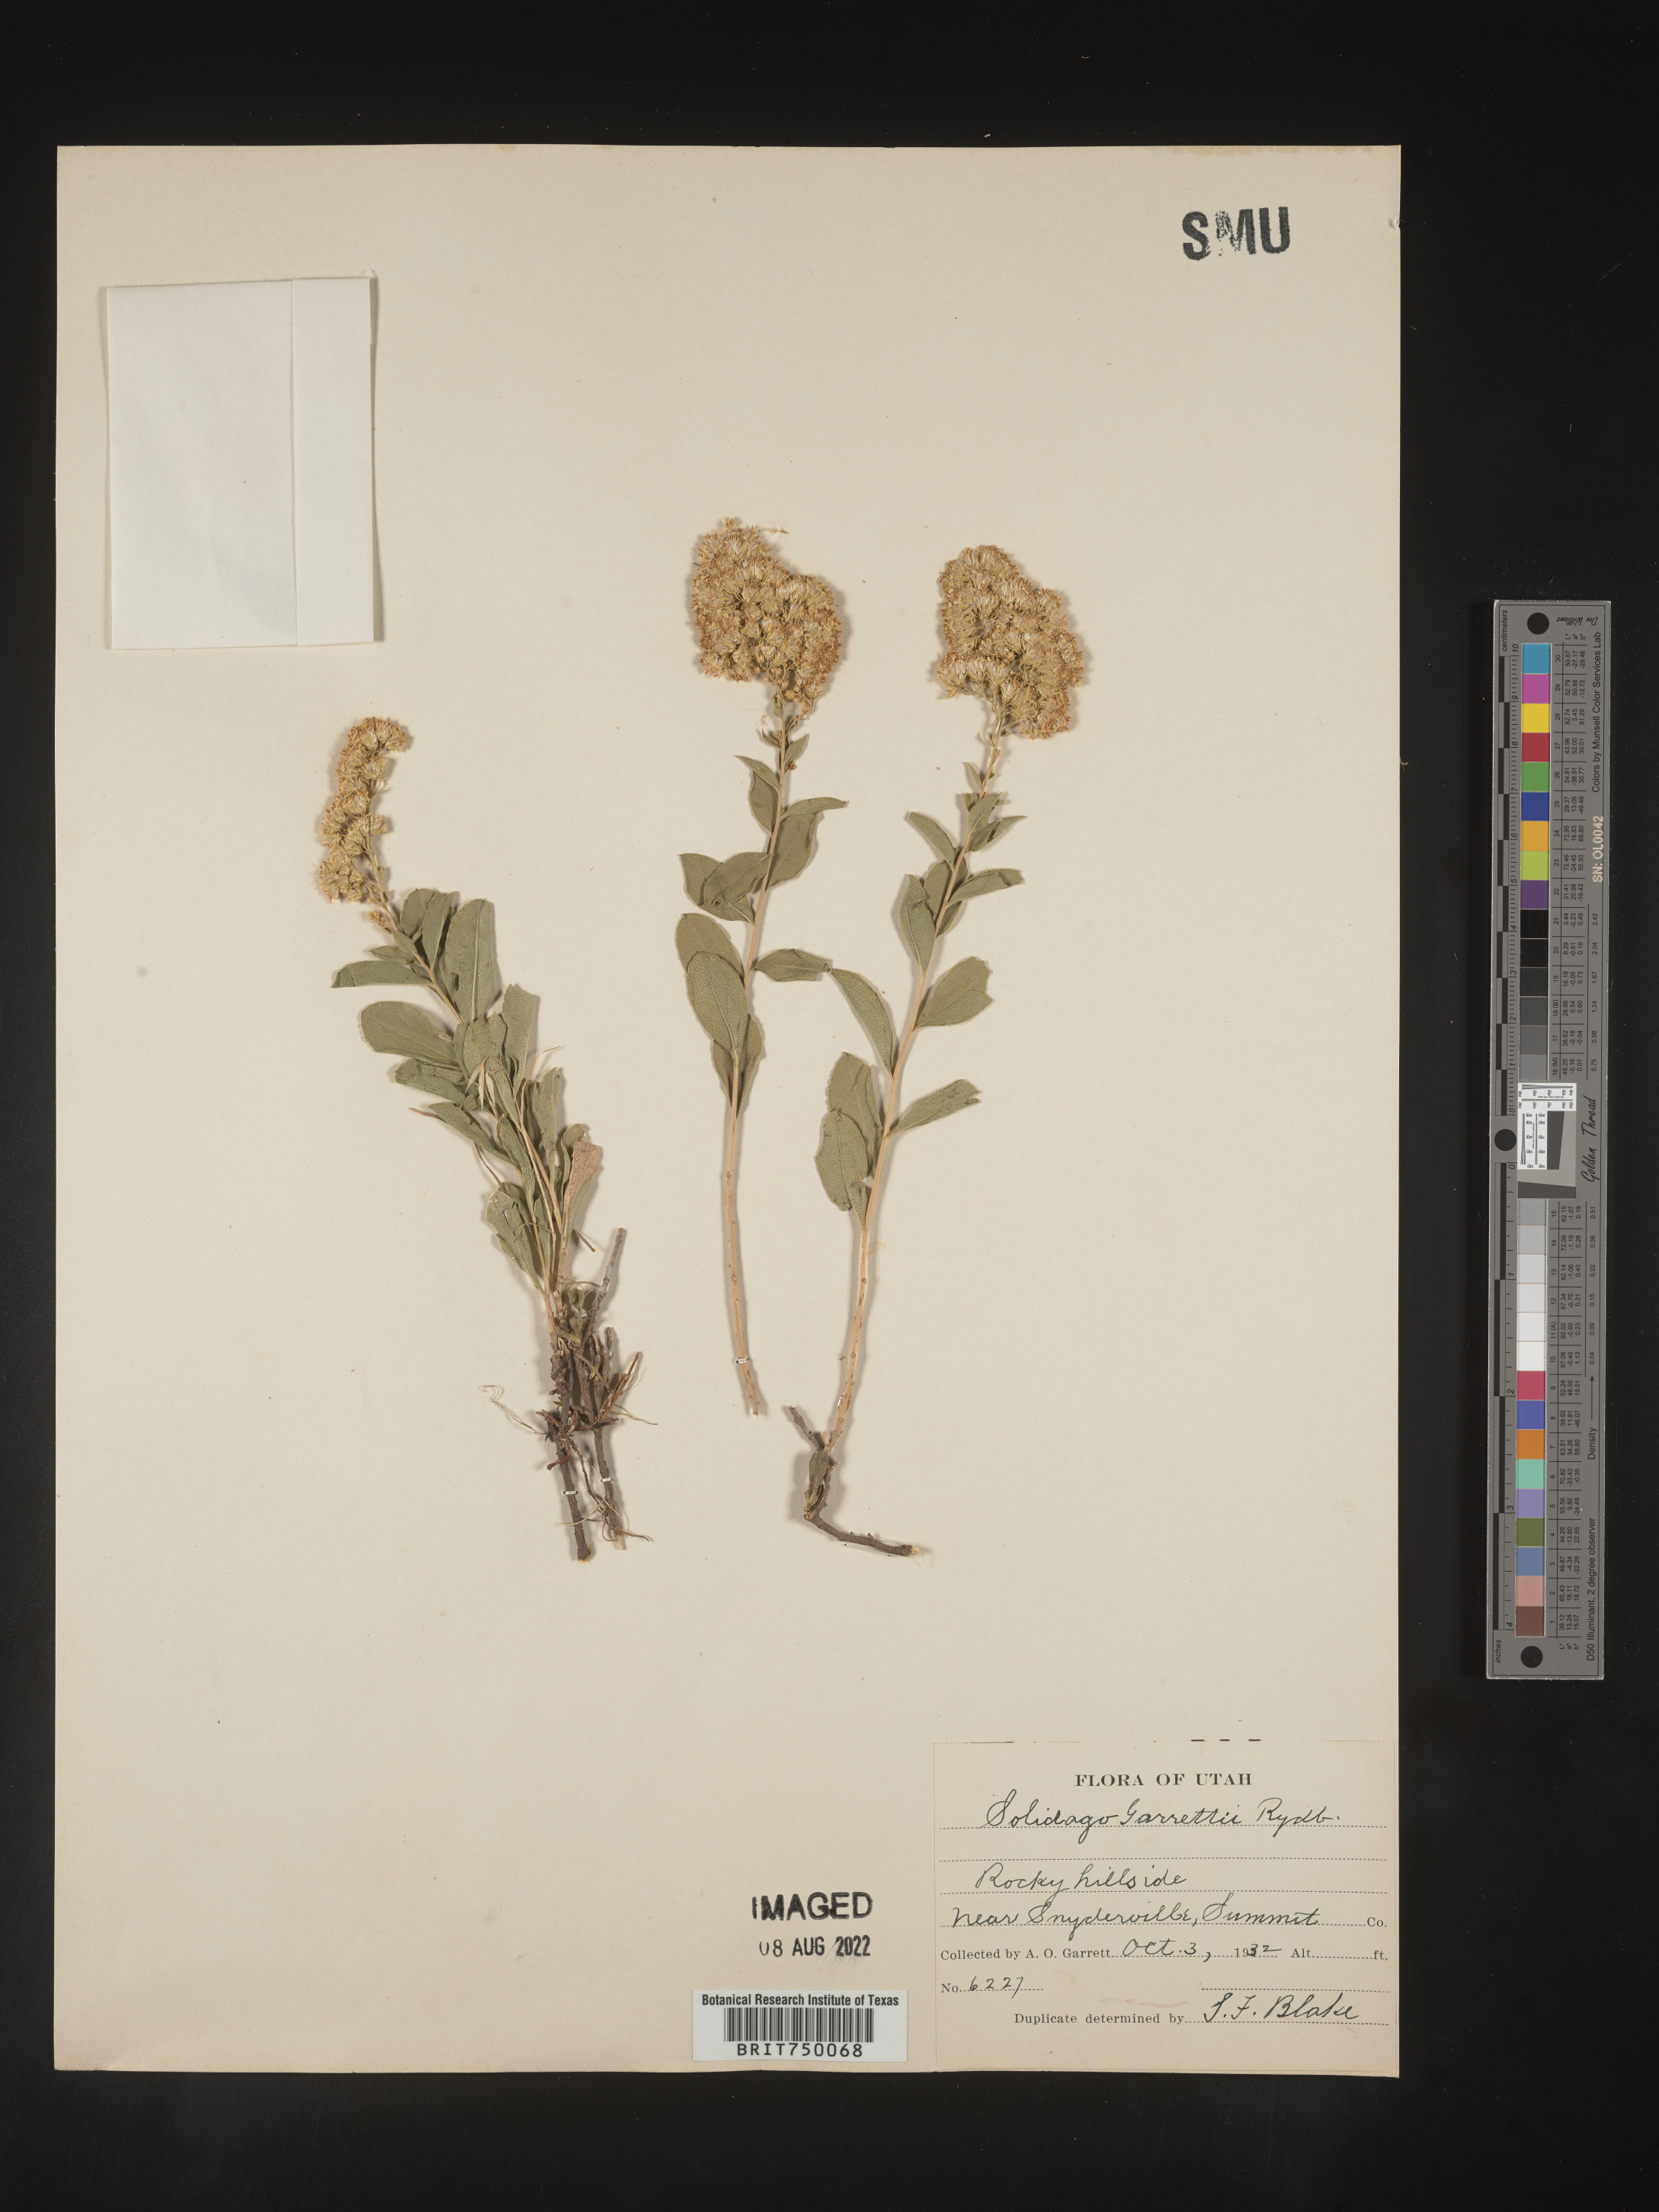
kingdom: Plantae
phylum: Tracheophyta
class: Magnoliopsida
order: Asterales
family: Asteraceae
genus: Solidago
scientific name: Solidago garrettii
